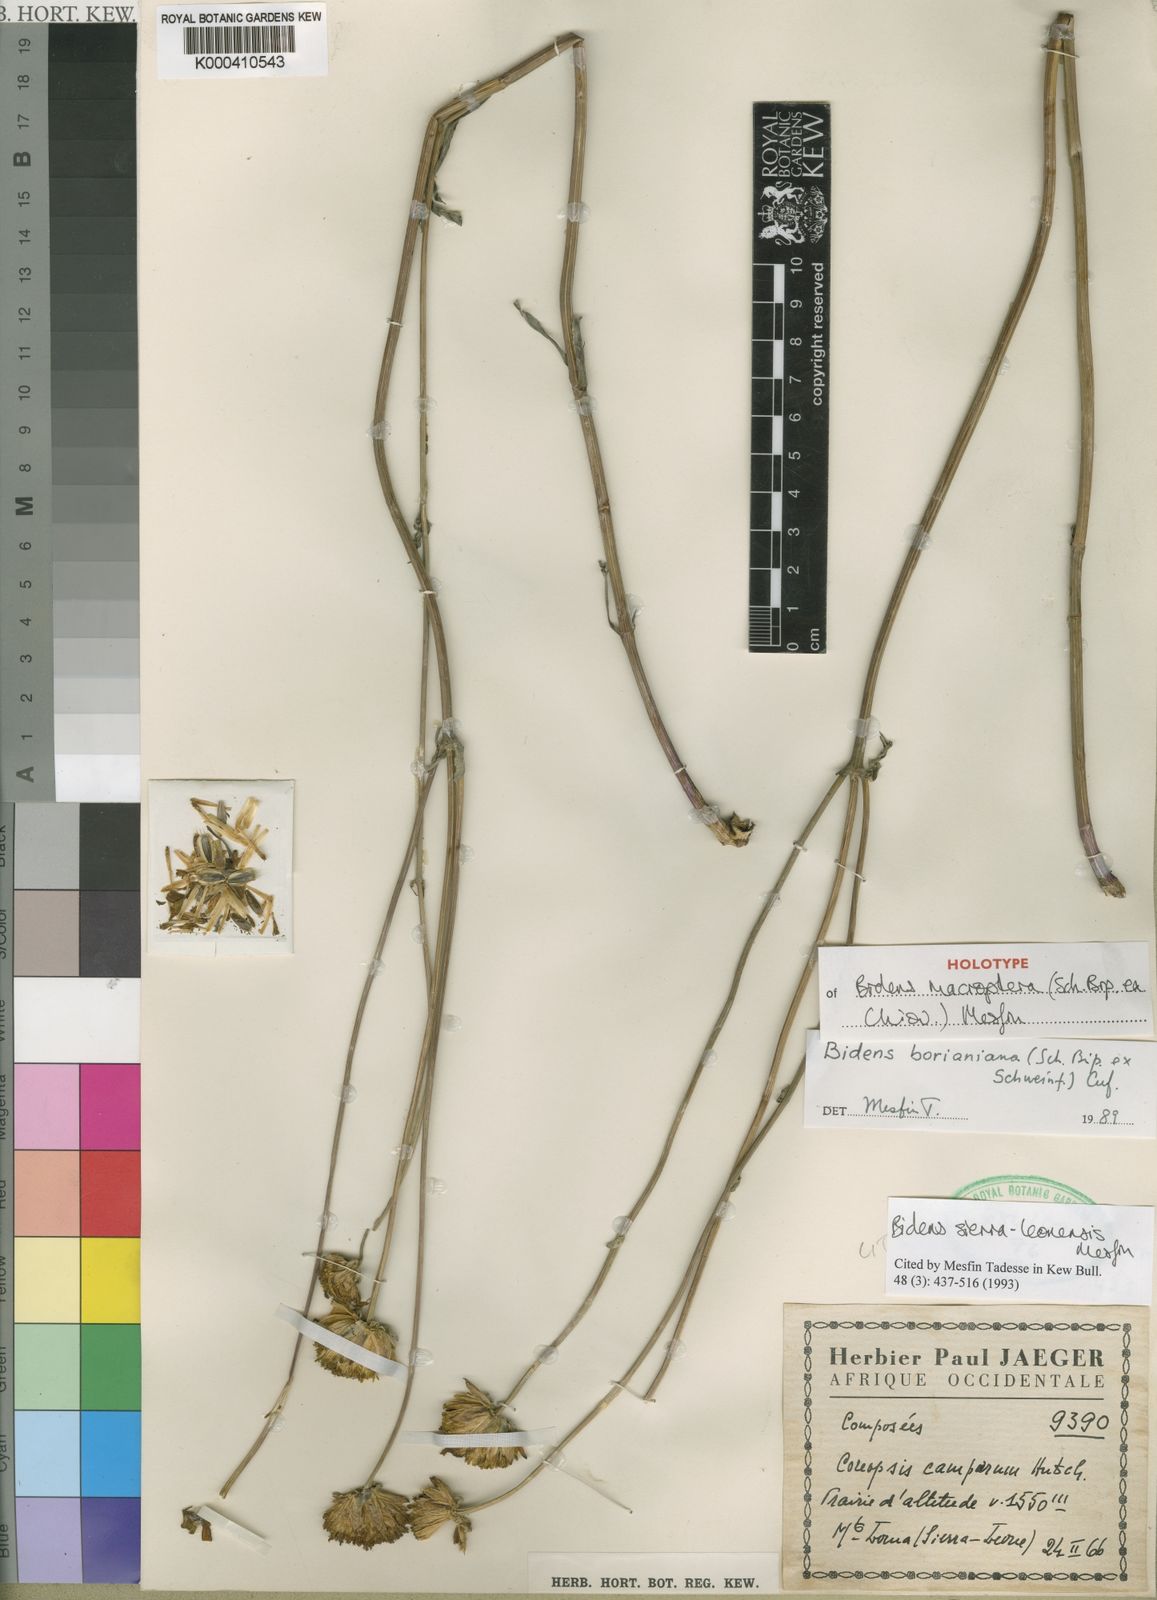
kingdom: Plantae
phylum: Tracheophyta
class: Magnoliopsida
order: Asterales
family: Asteraceae
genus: Bidens
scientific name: Bidens sierra-leonensis
